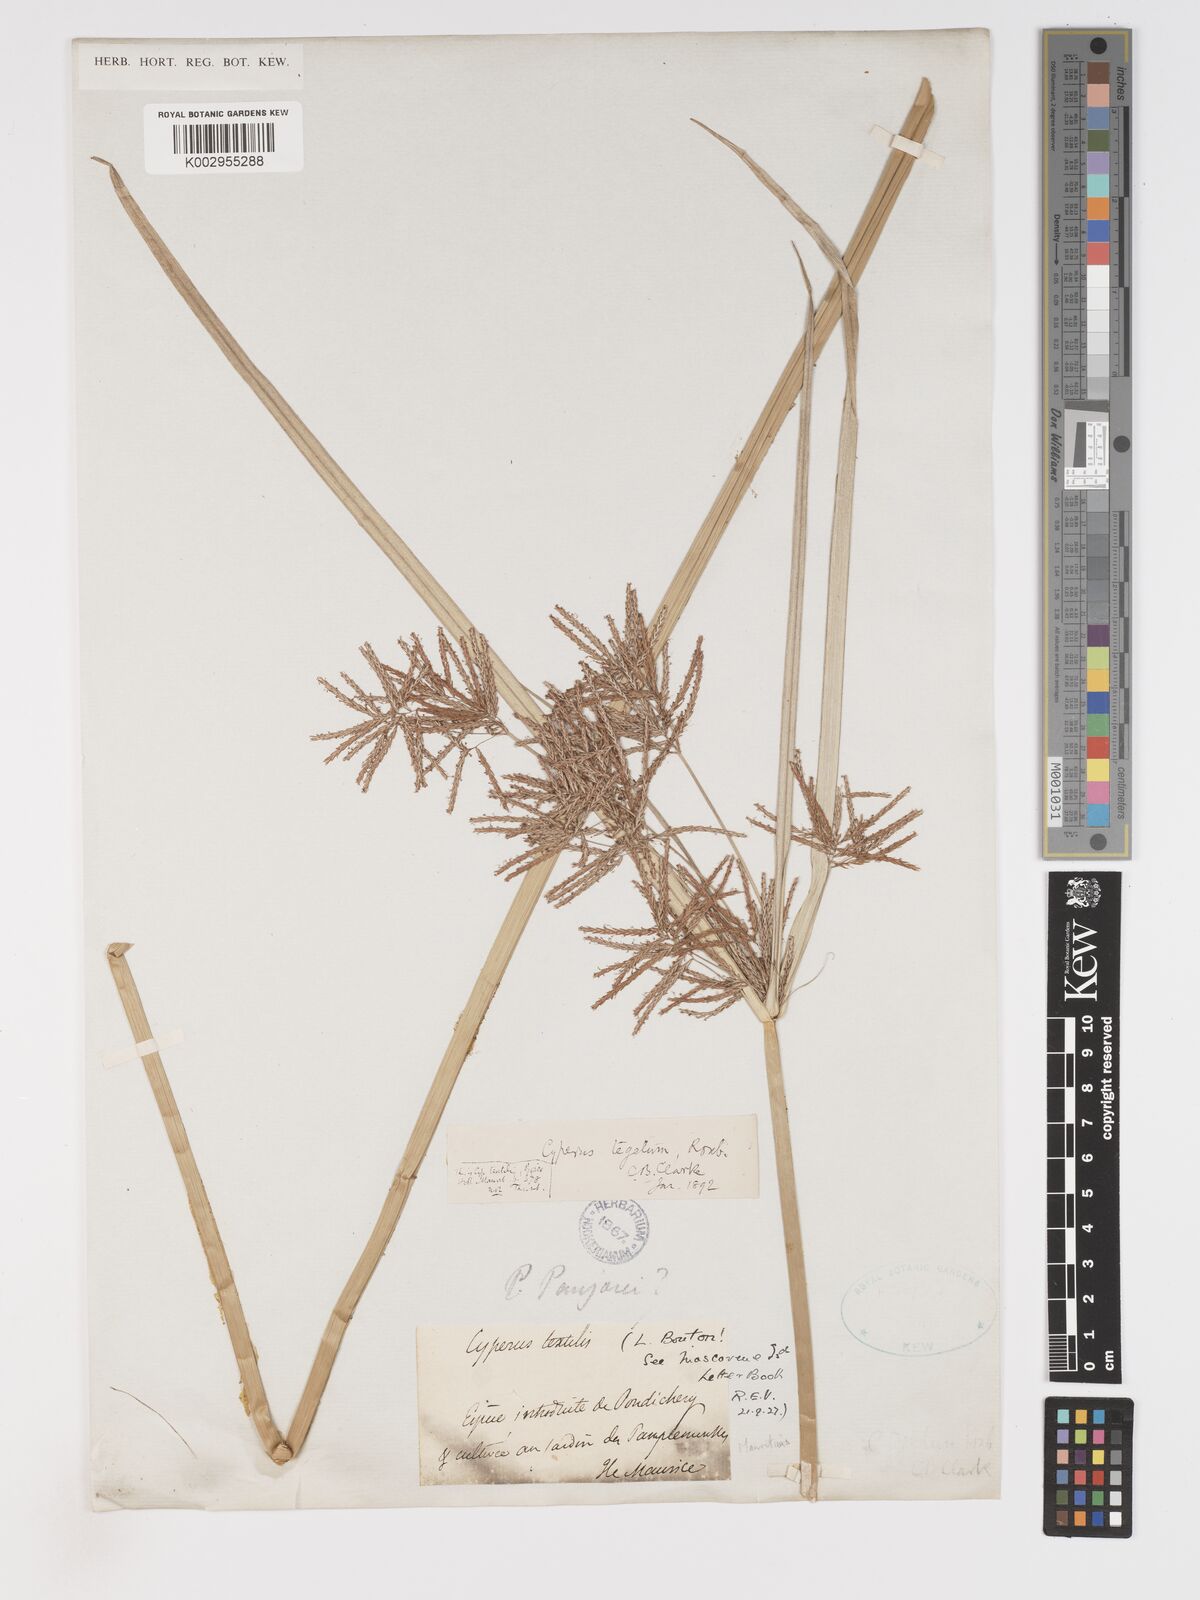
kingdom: Plantae
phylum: Tracheophyta
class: Liliopsida
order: Poales
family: Cyperaceae
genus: Cyperus
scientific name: Cyperus pangorei
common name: Mat sedge
